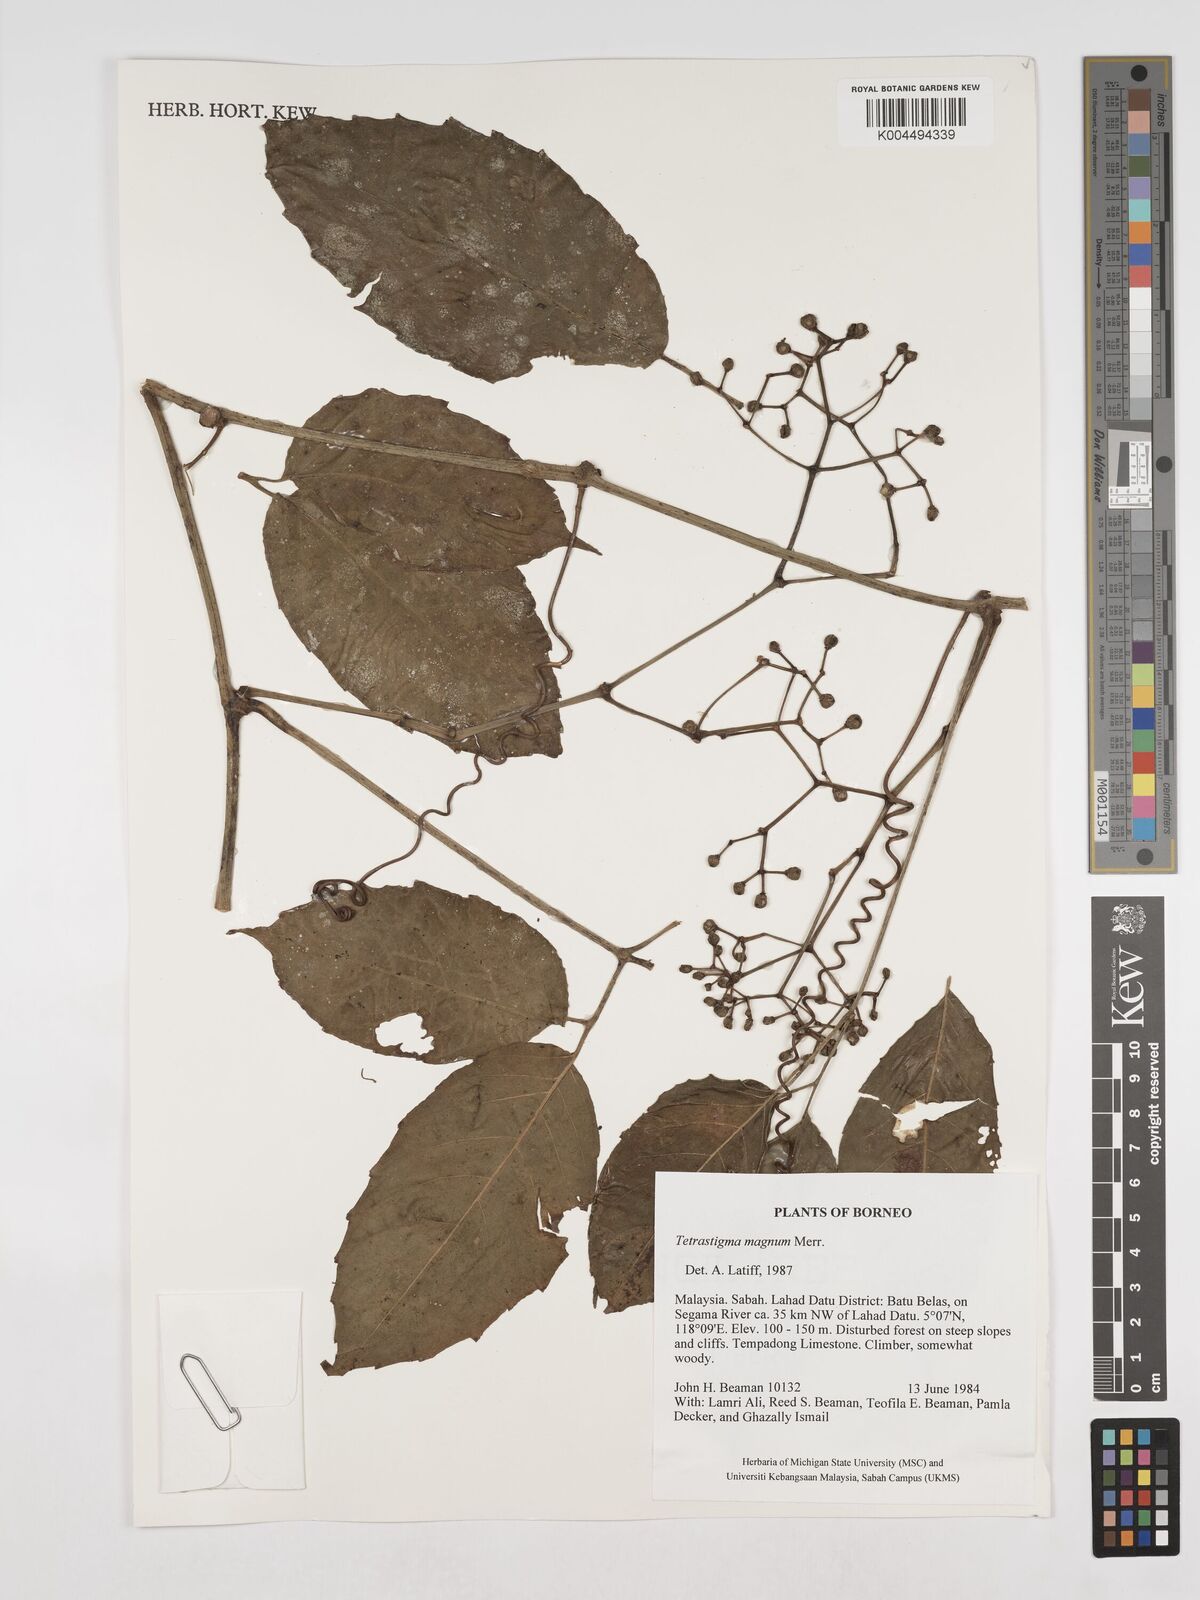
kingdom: Plantae
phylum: Tracheophyta
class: Magnoliopsida
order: Vitales
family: Vitaceae
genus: Tetrastigma
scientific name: Tetrastigma magnum
